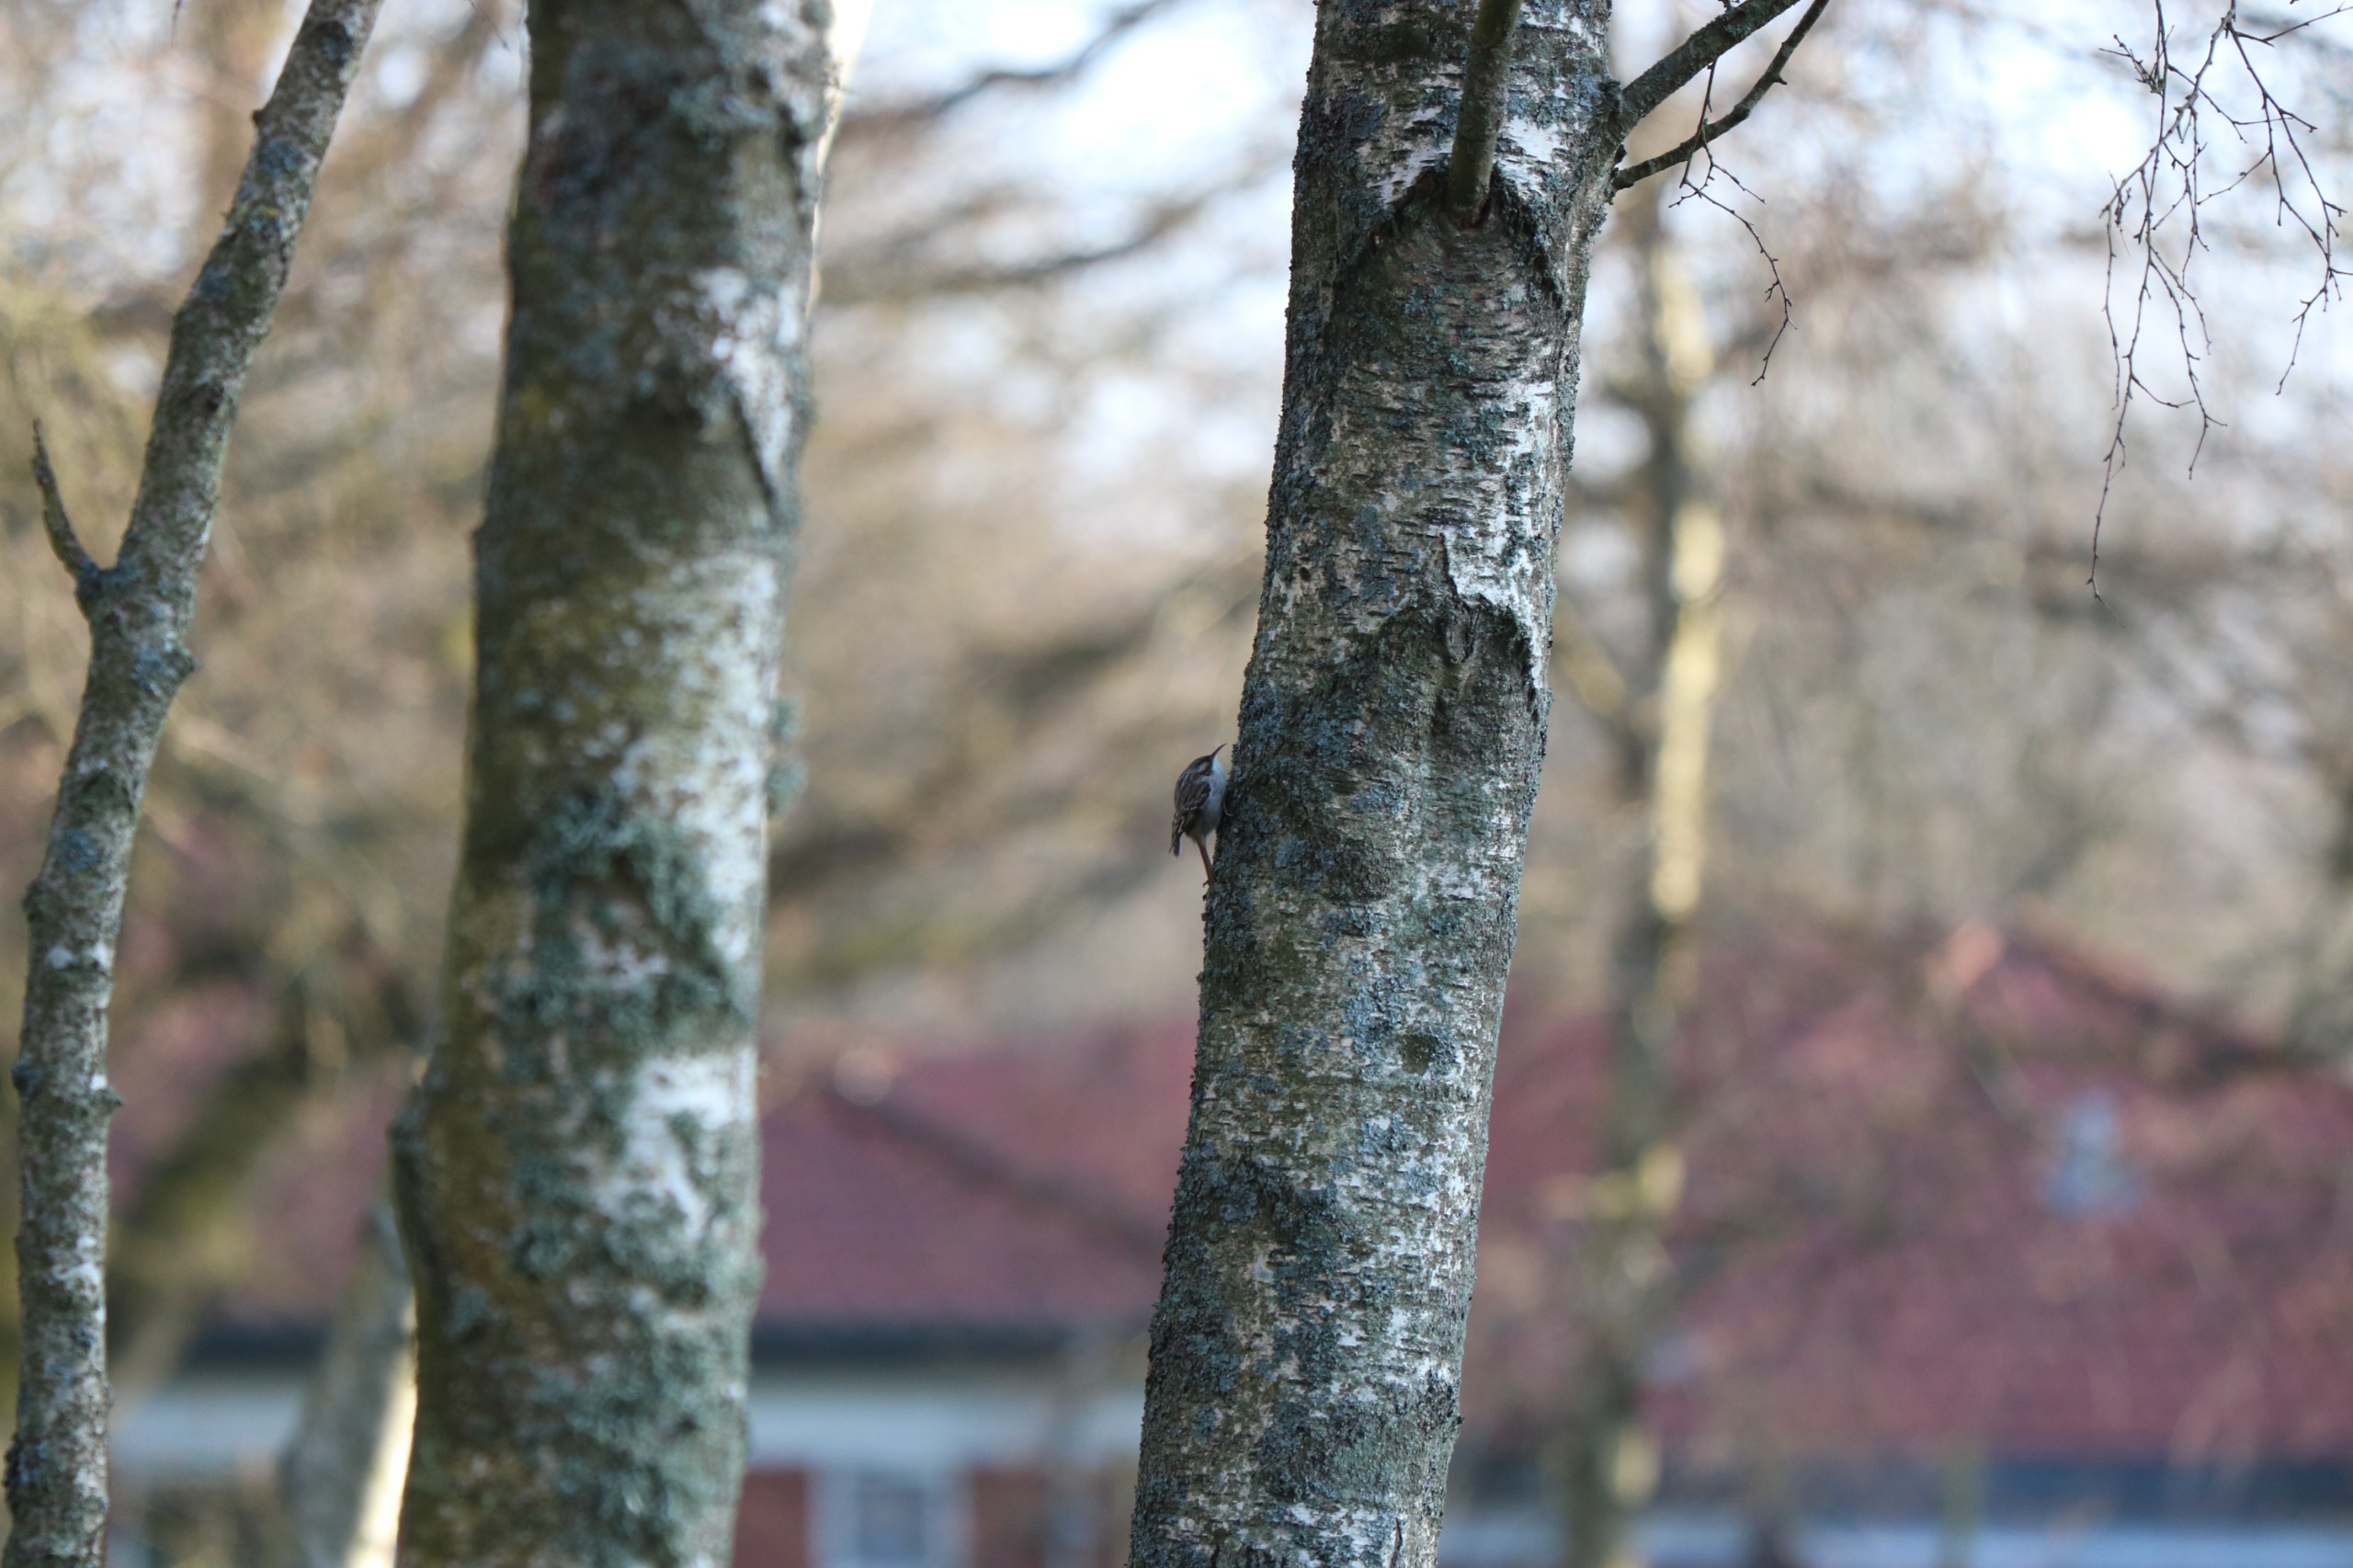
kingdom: Animalia
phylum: Chordata
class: Aves
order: Passeriformes
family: Certhiidae
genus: Certhia
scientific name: Certhia familiaris
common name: Træløber
